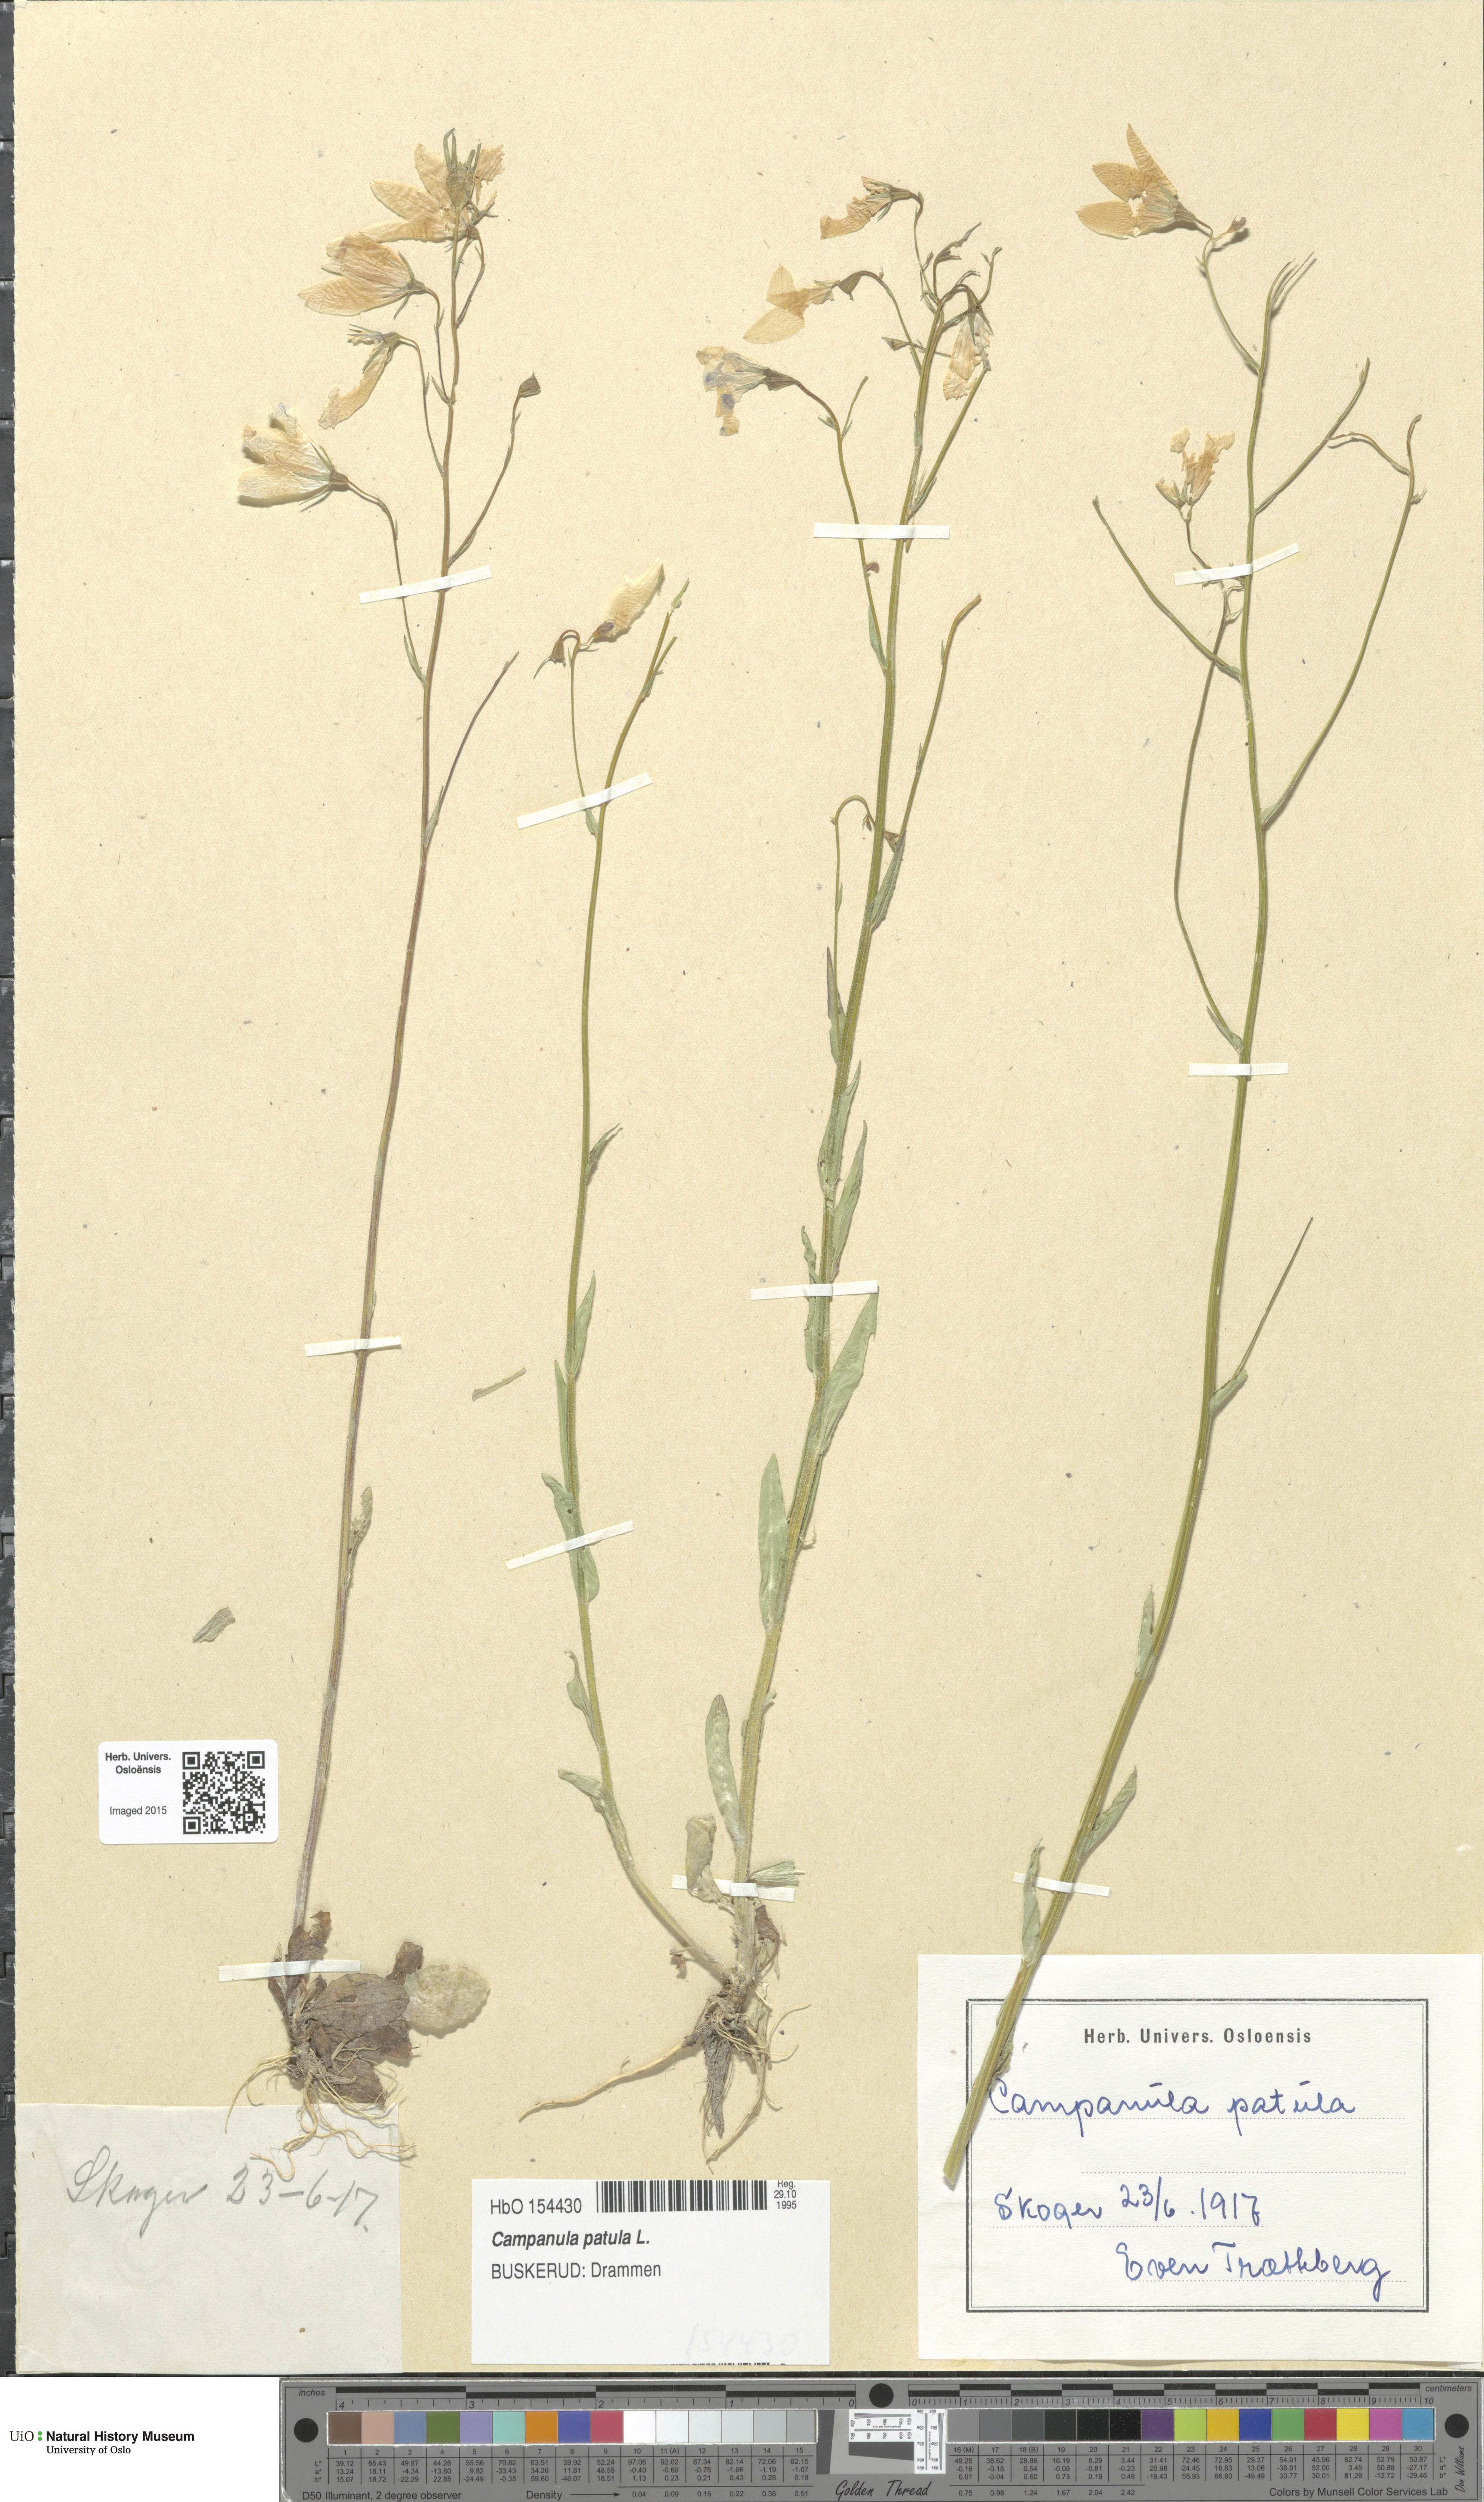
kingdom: Plantae
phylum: Tracheophyta
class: Magnoliopsida
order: Asterales
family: Campanulaceae
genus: Campanula
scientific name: Campanula patula
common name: Spreading bellflower
